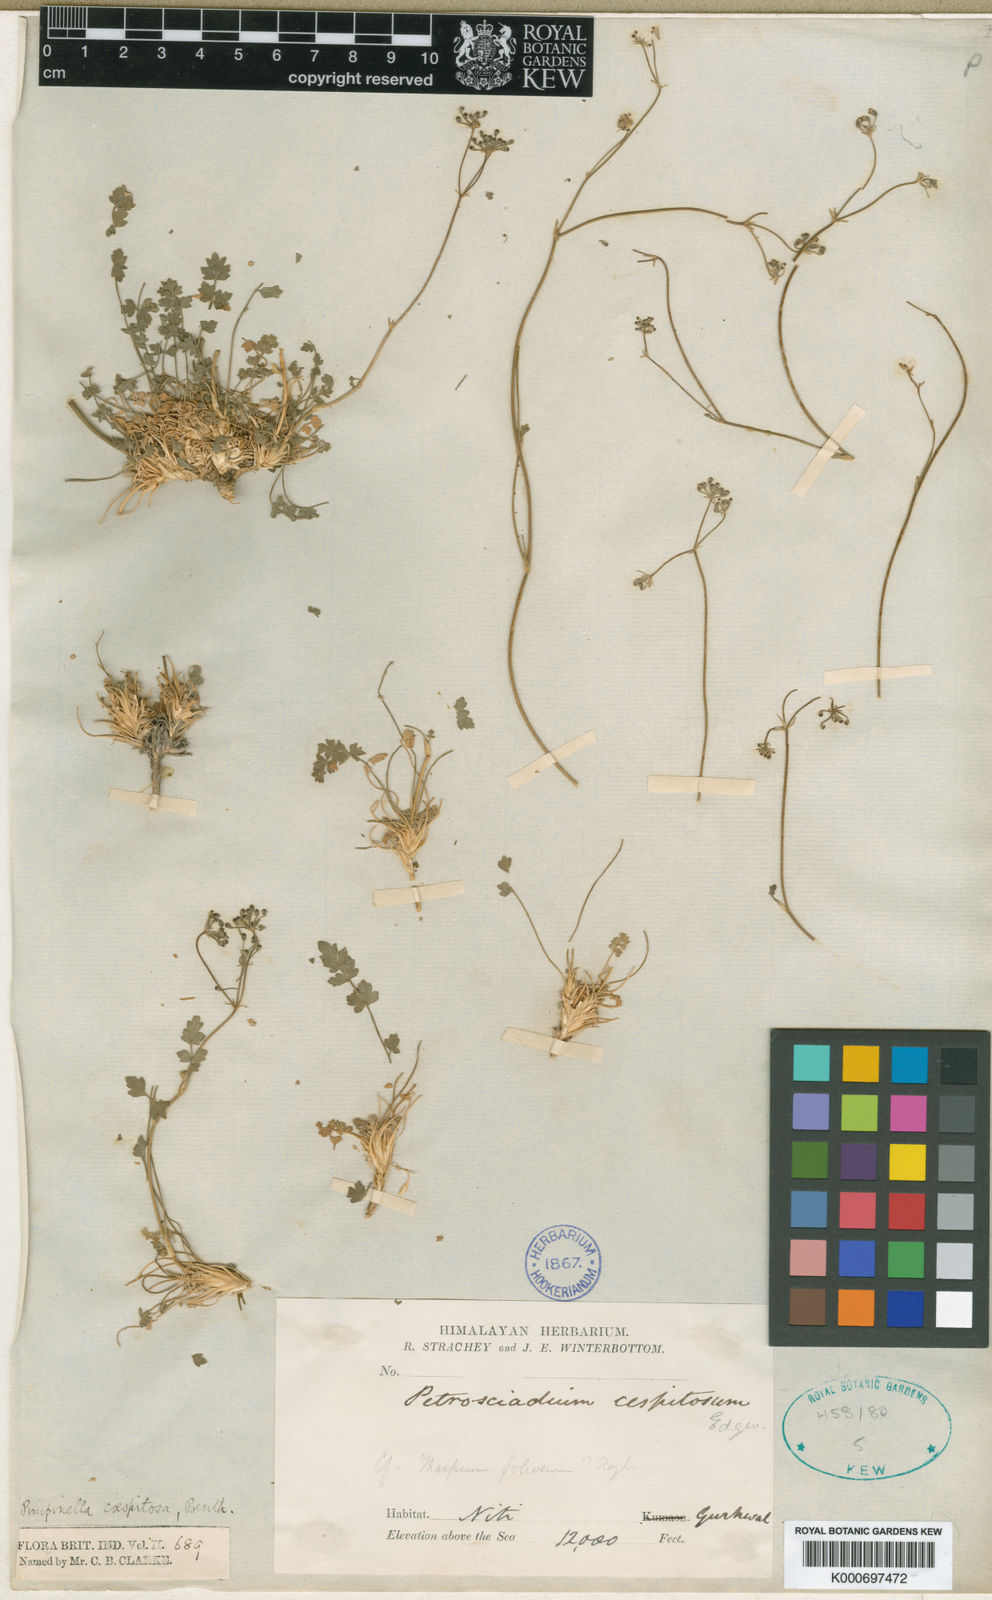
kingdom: Plantae
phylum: Tracheophyta
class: Magnoliopsida
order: Apiales
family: Apiaceae
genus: Seseli
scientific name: Seseli petrosciadium
